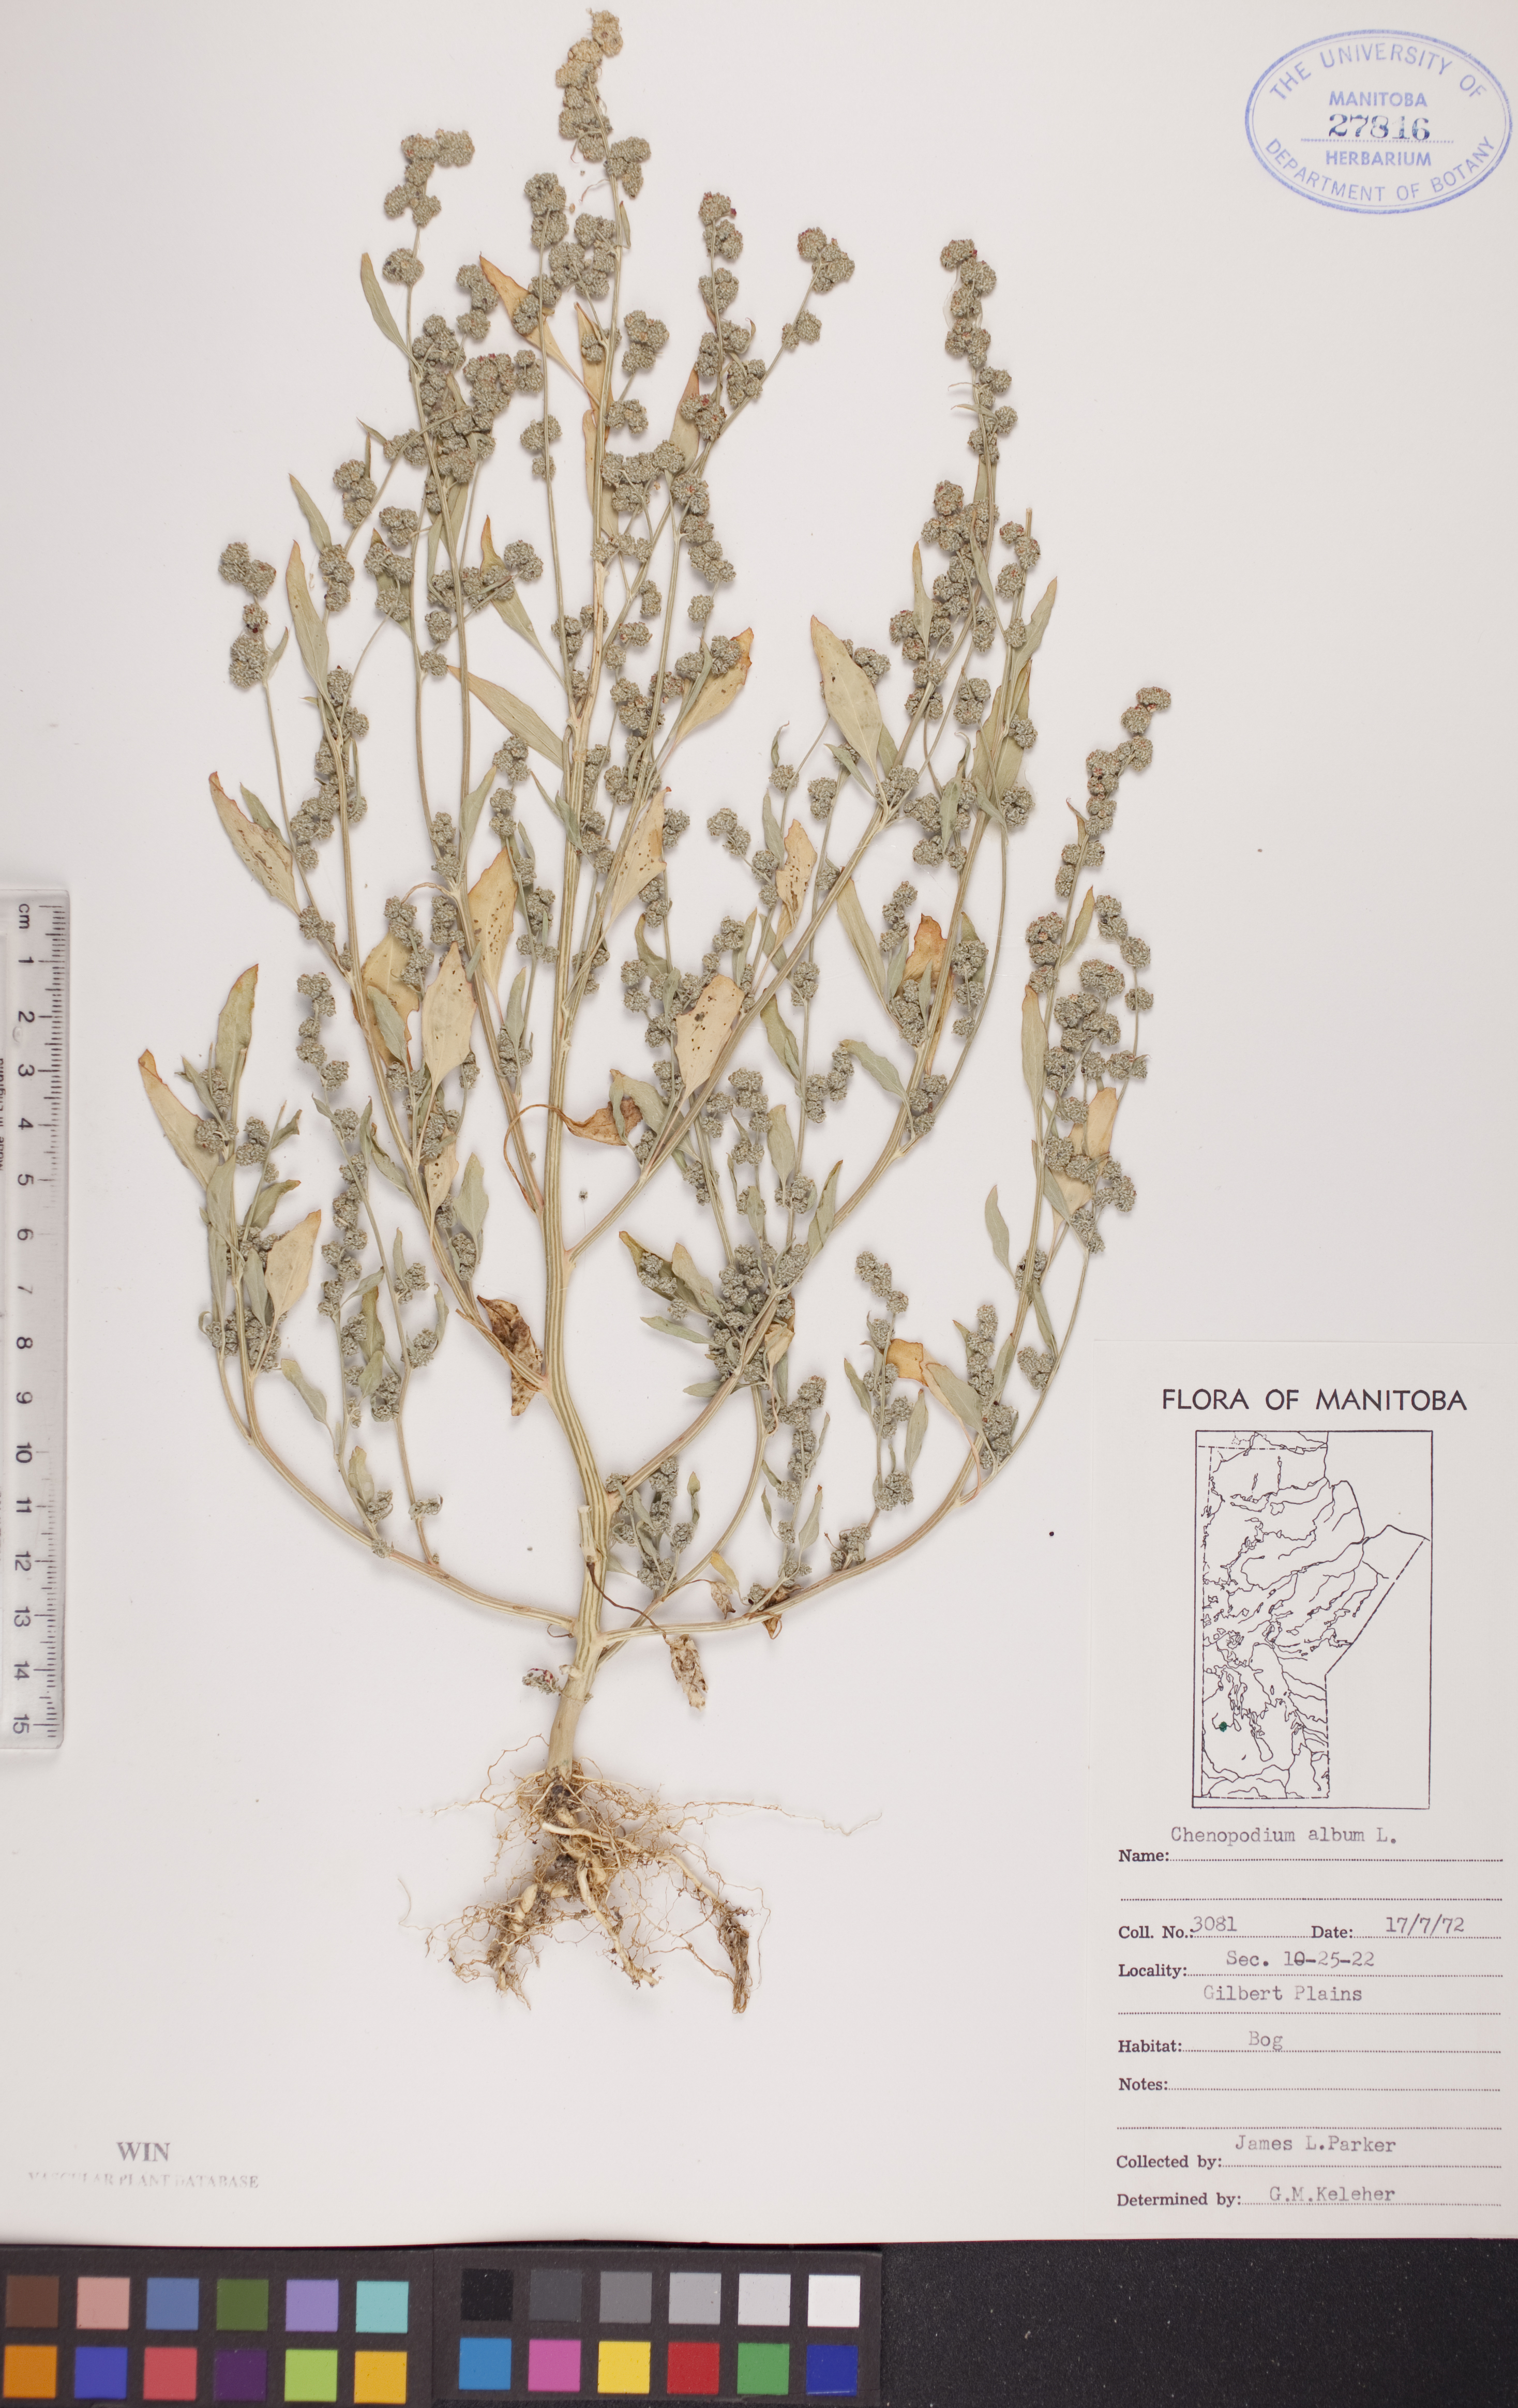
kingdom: Plantae
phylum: Tracheophyta
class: Magnoliopsida
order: Caryophyllales
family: Amaranthaceae
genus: Chenopodium
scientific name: Chenopodium album
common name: Fat-hen
